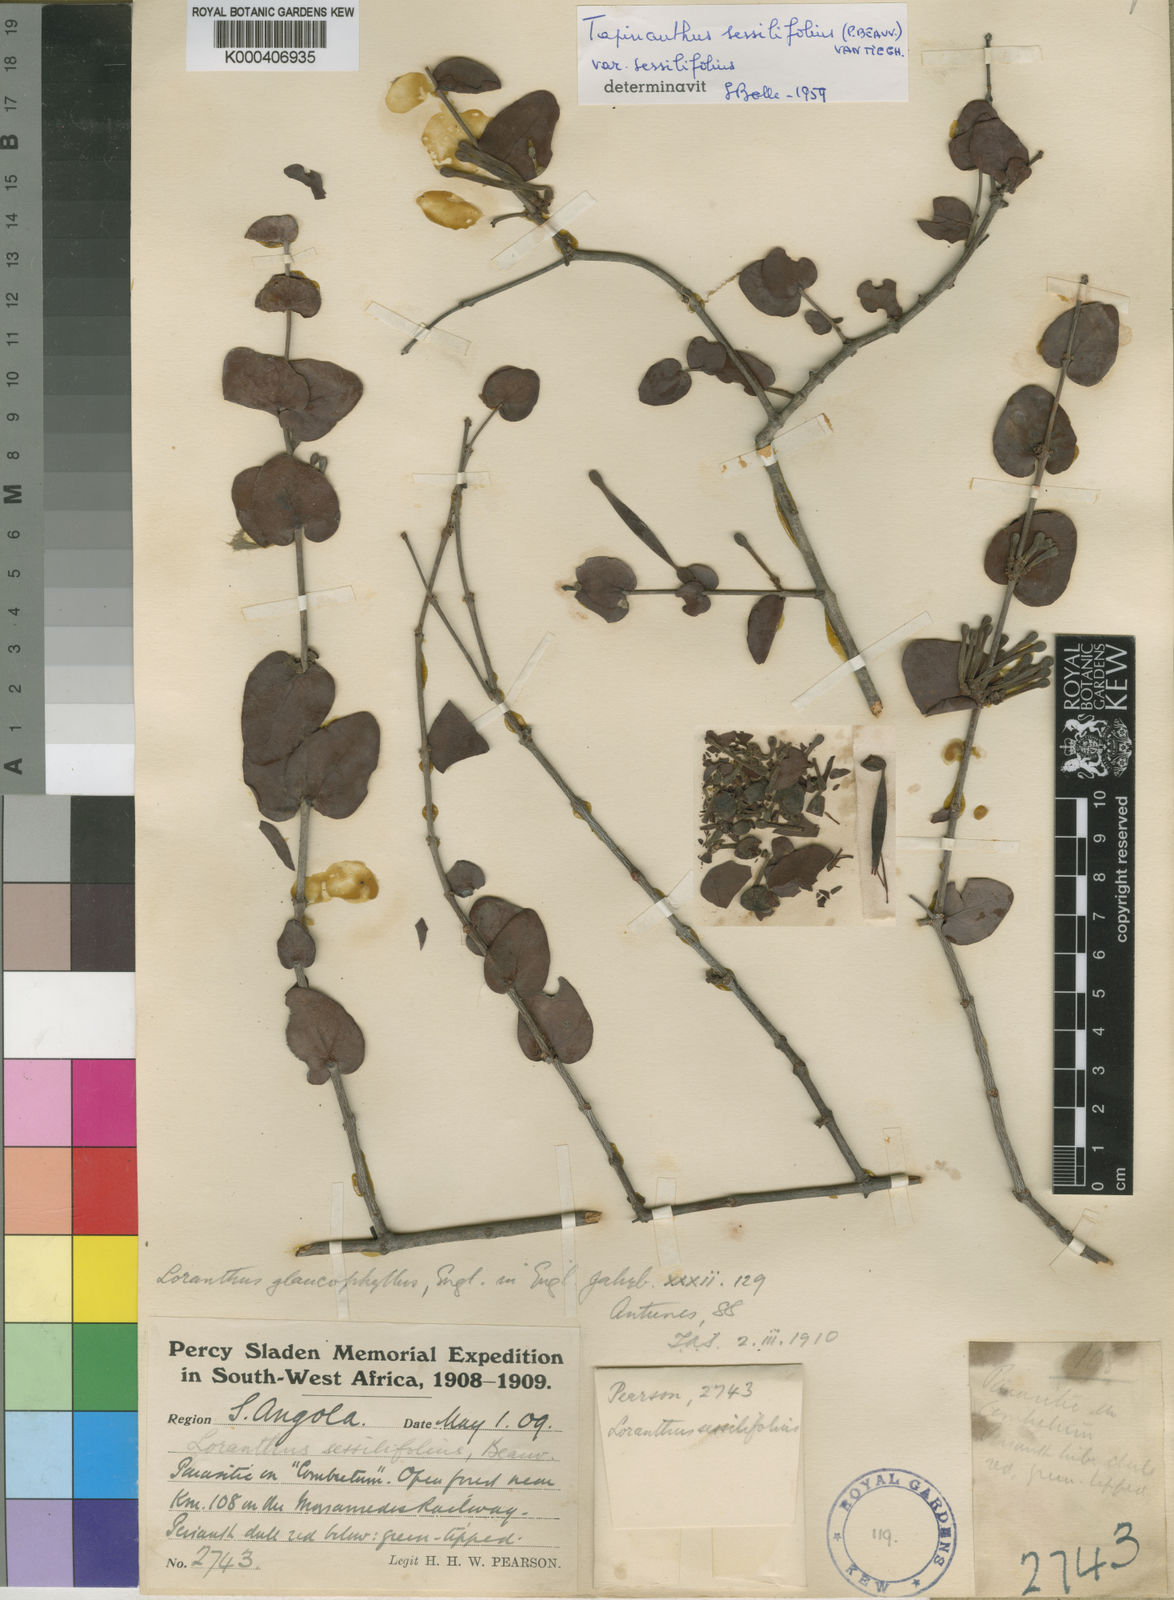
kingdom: Plantae
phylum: Tracheophyta
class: Magnoliopsida
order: Santalales
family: Loranthaceae
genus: Tapinanthus
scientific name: Tapinanthus glaucophyllus
